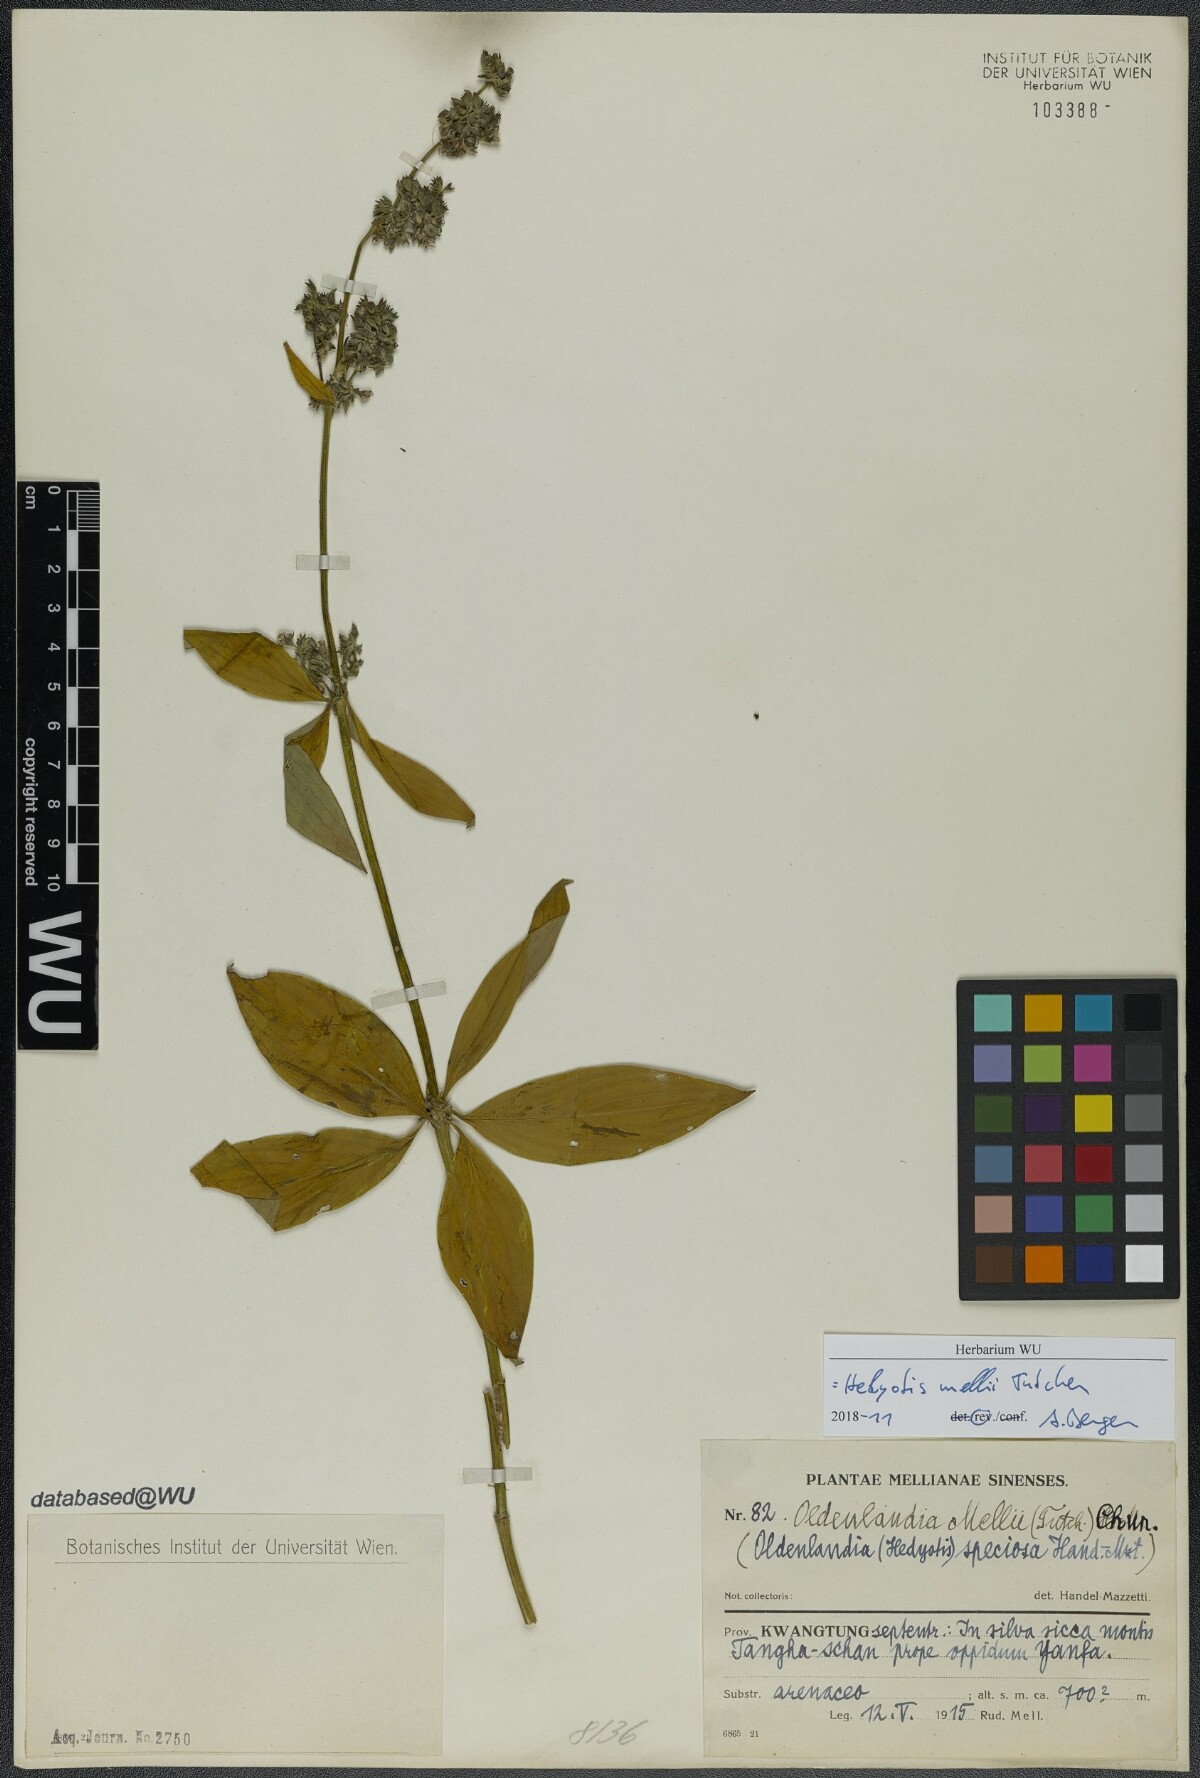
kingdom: Plantae
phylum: Tracheophyta
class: Magnoliopsida
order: Gentianales
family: Rubiaceae
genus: Hedyotis
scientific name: Hedyotis matthewii
